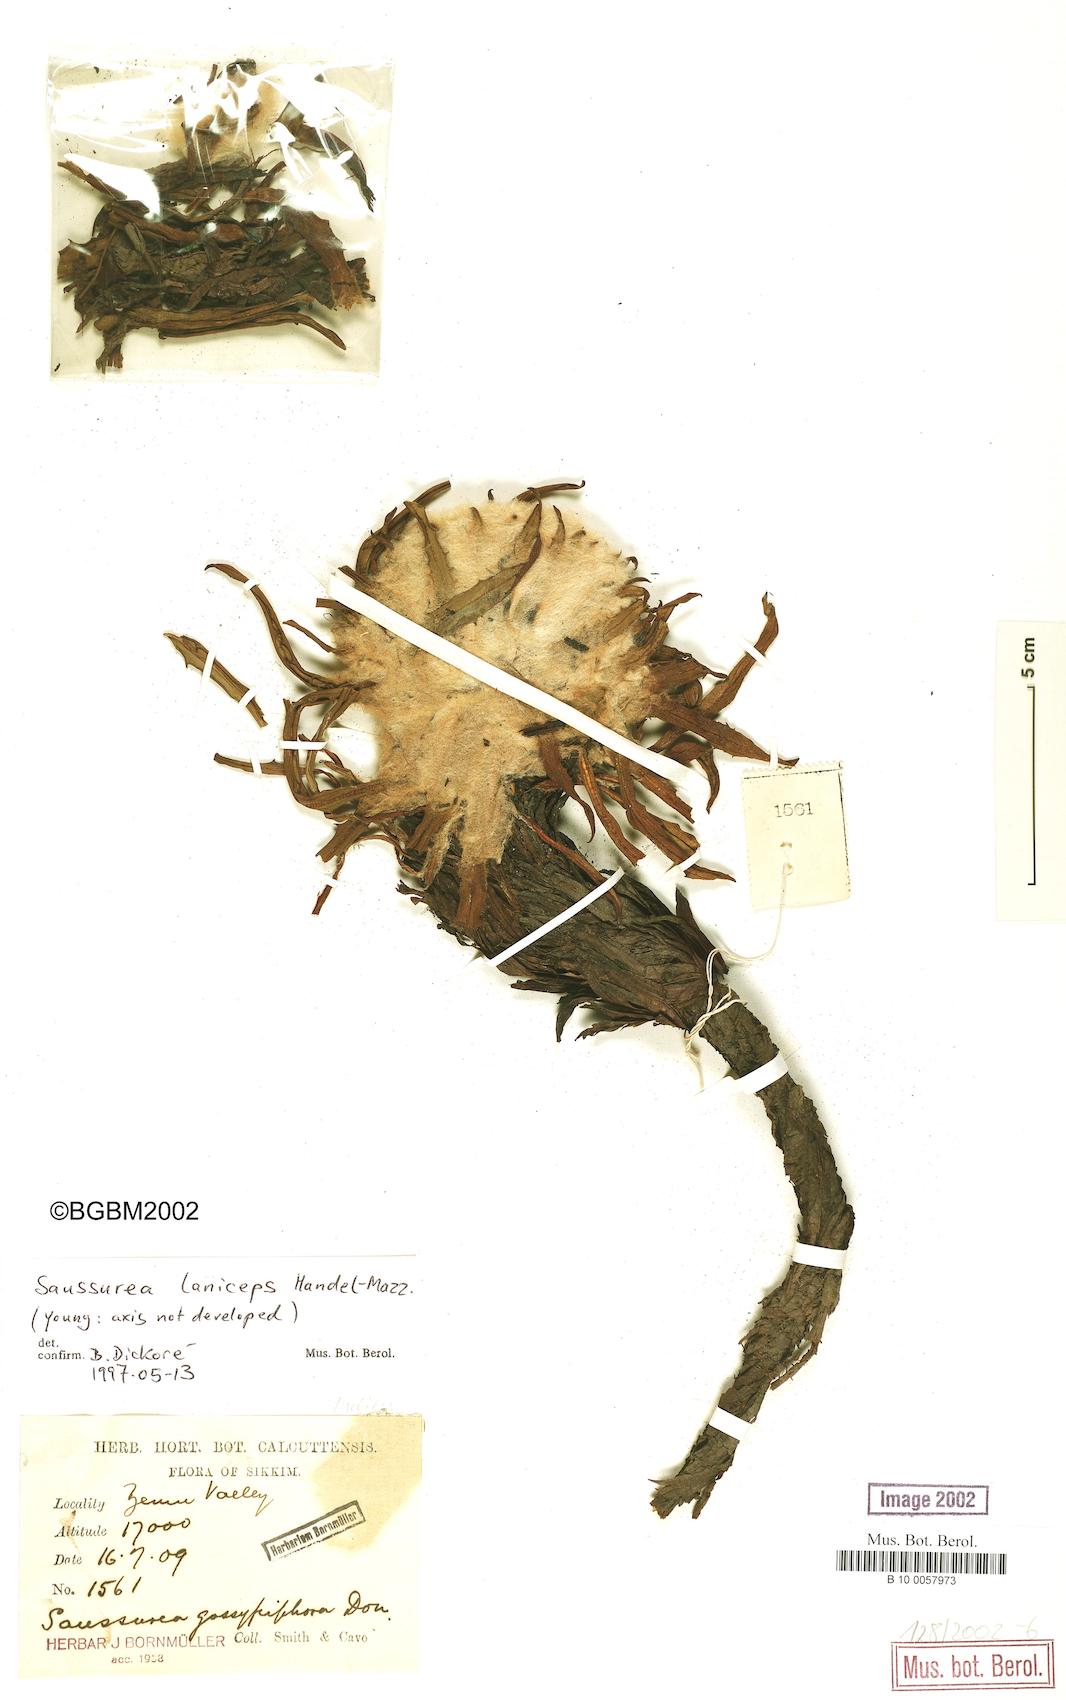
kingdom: Plantae
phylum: Tracheophyta
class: Magnoliopsida
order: Asterales
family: Asteraceae
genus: Saussurea
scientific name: Saussurea leucoma
